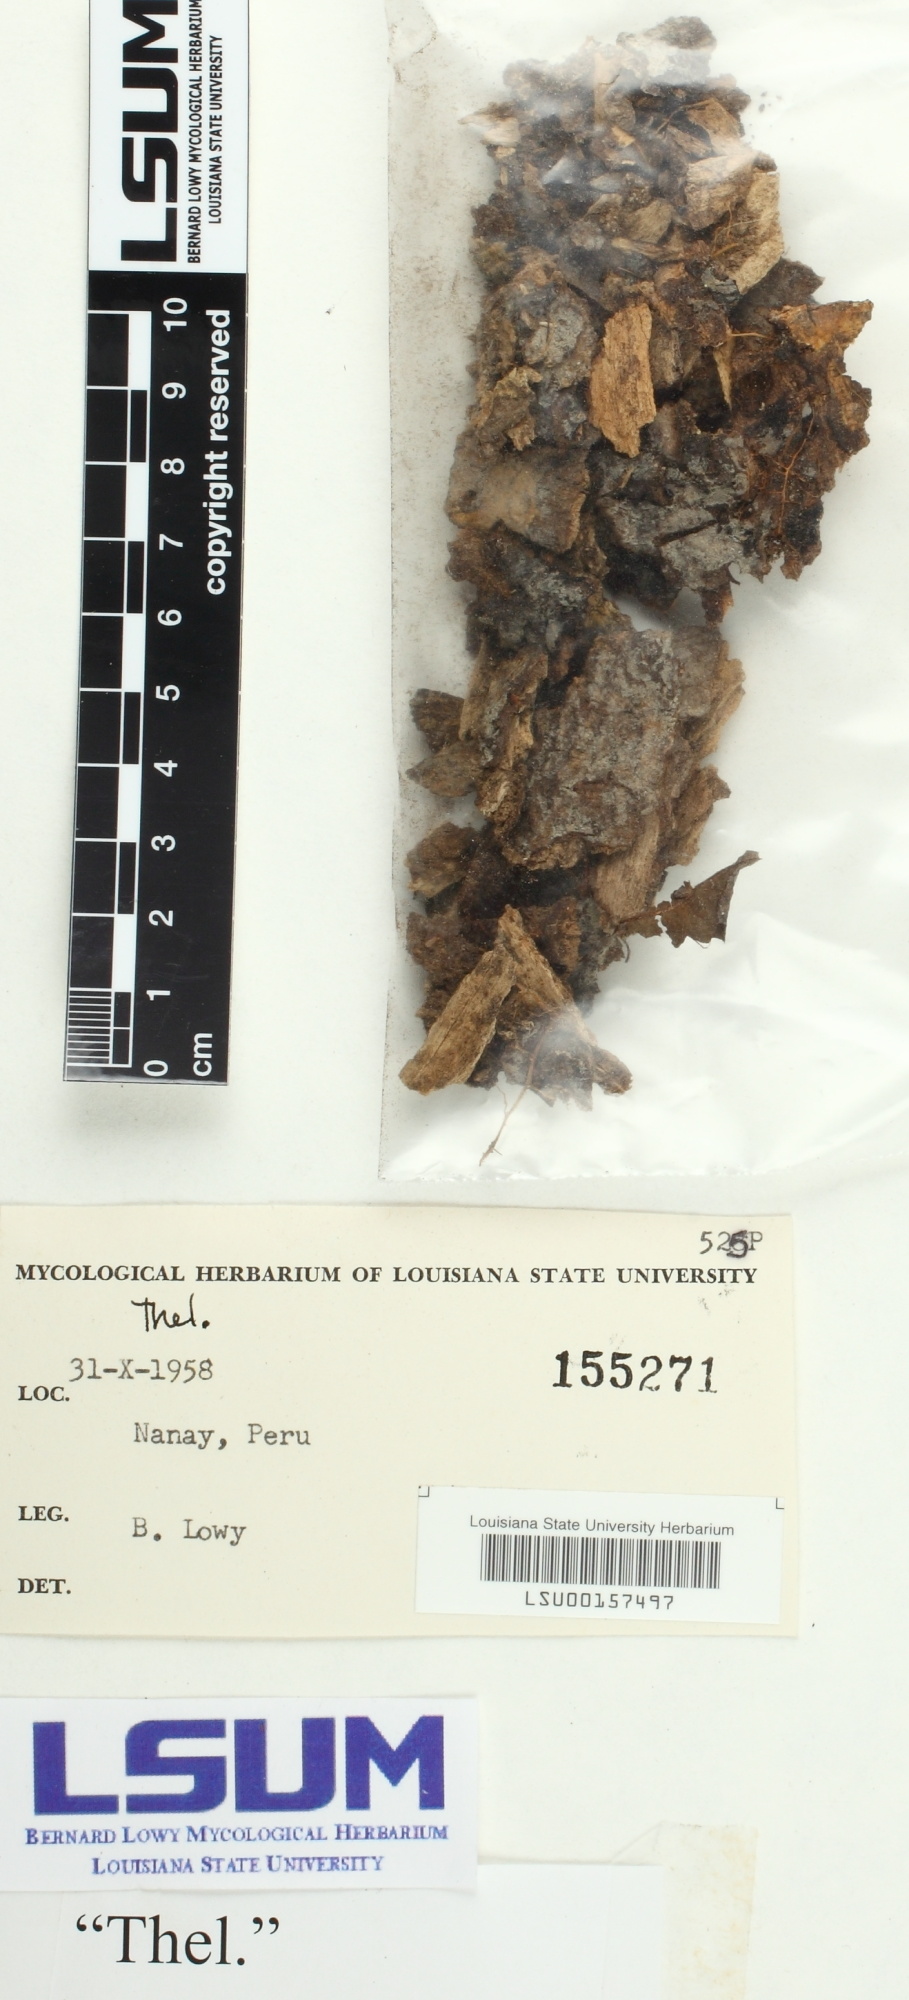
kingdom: Fungi
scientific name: Fungi
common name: Fungi
